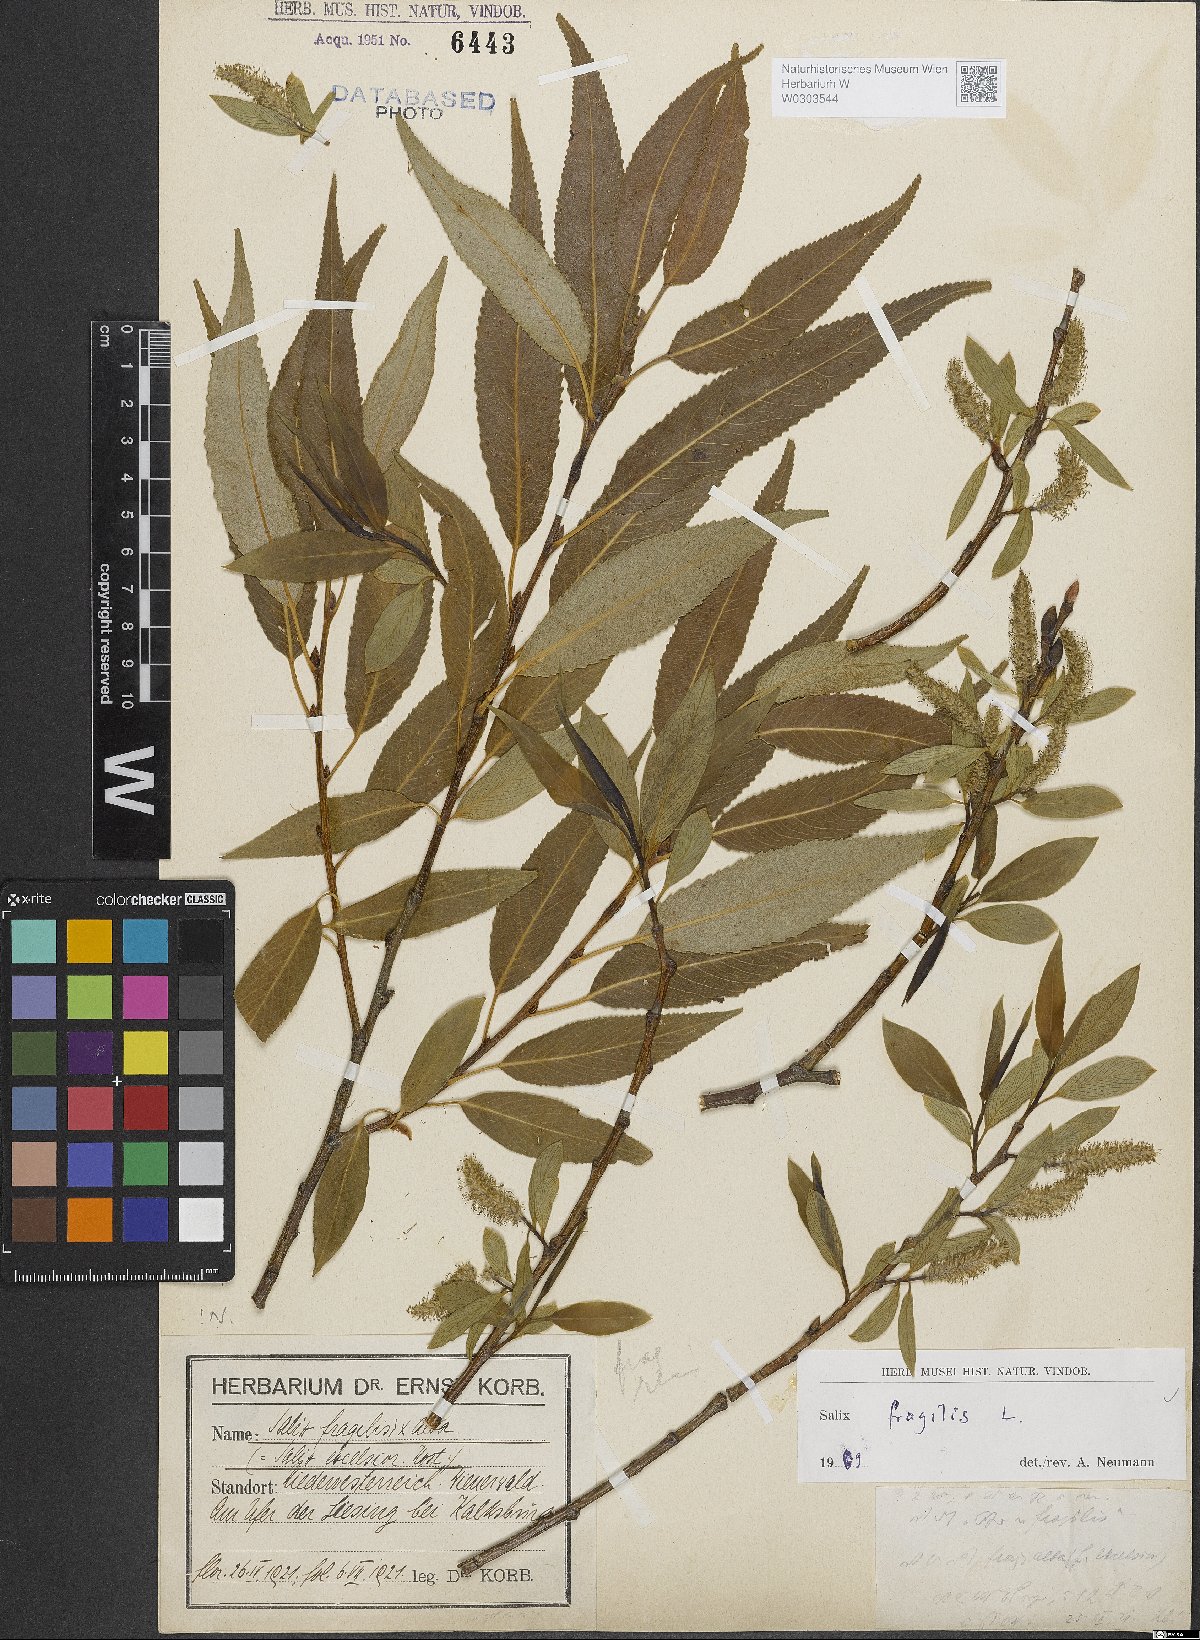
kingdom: Plantae
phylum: Tracheophyta
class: Magnoliopsida
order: Malpighiales
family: Salicaceae
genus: Salix
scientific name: Salix fragilis
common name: Crack willow
